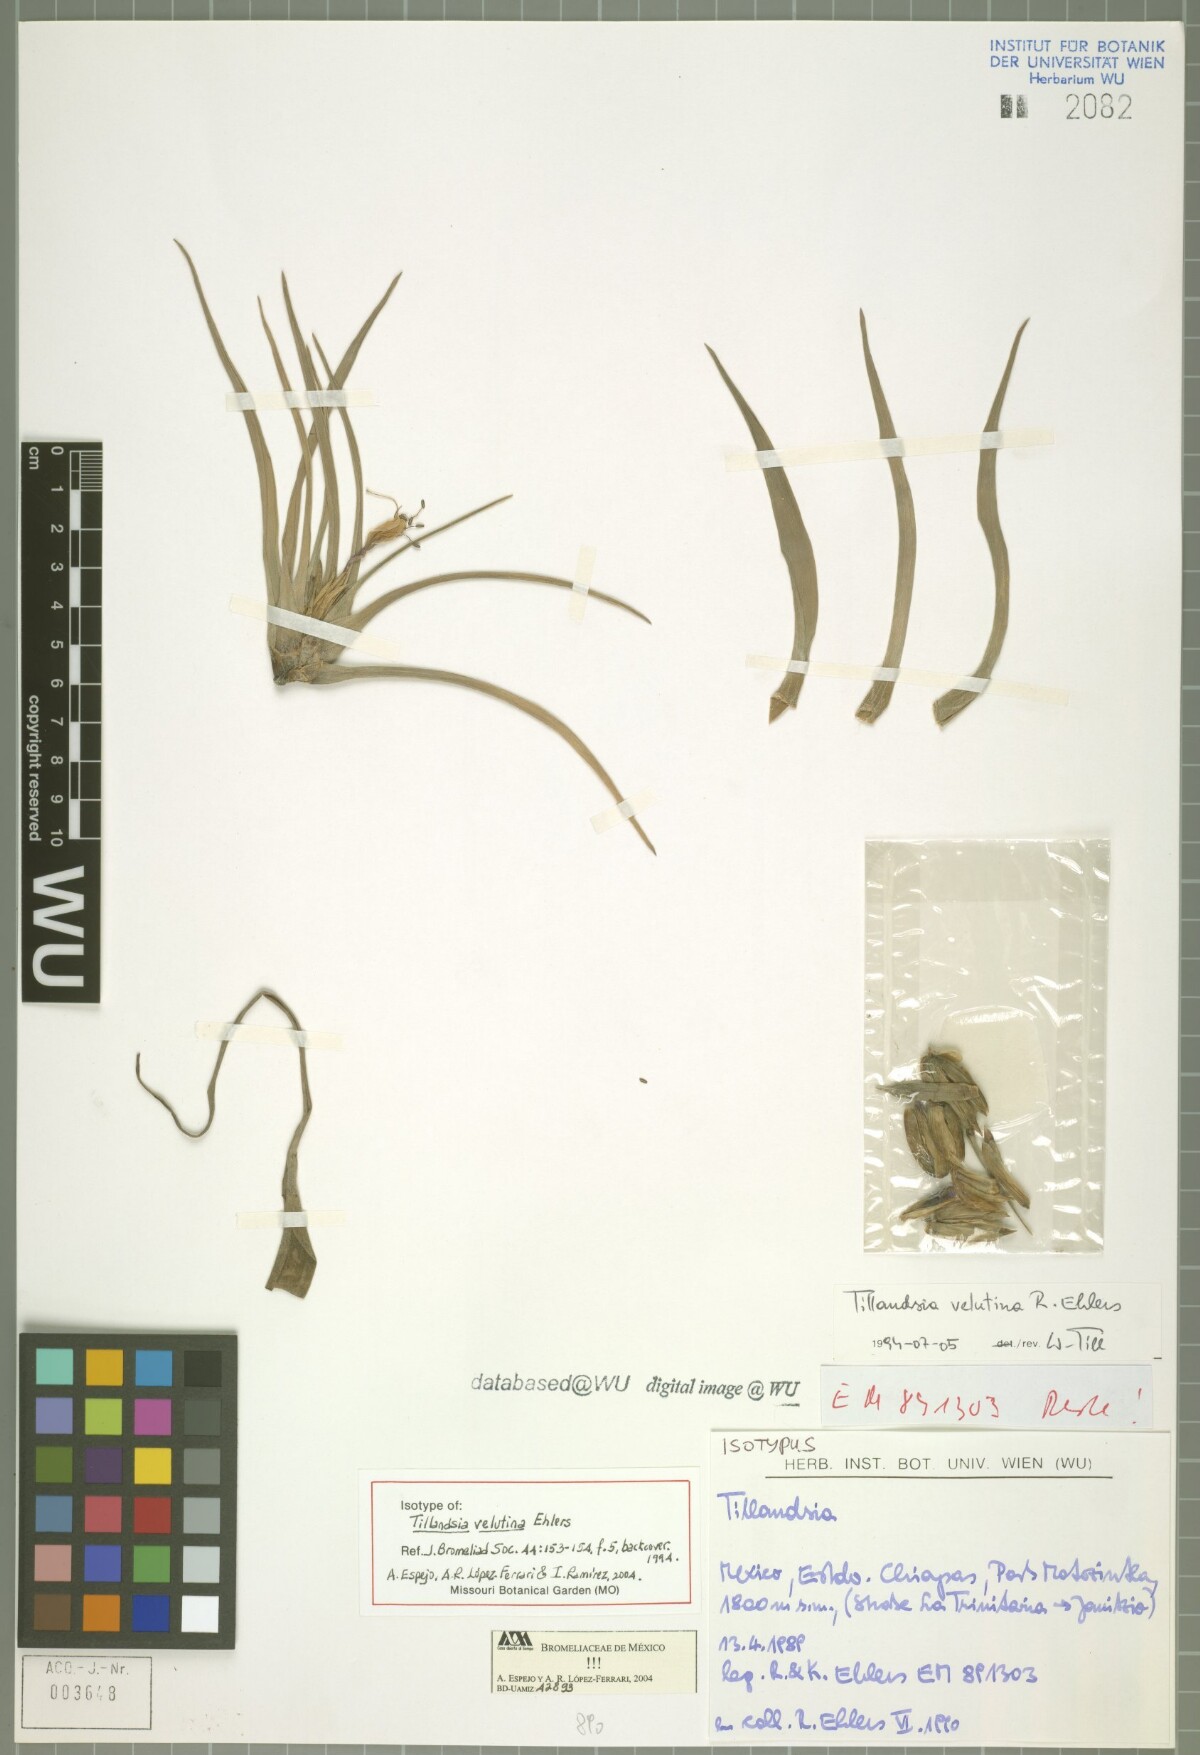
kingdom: Plantae
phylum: Tracheophyta
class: Liliopsida
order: Poales
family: Bromeliaceae
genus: Tillandsia
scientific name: Tillandsia velutina
